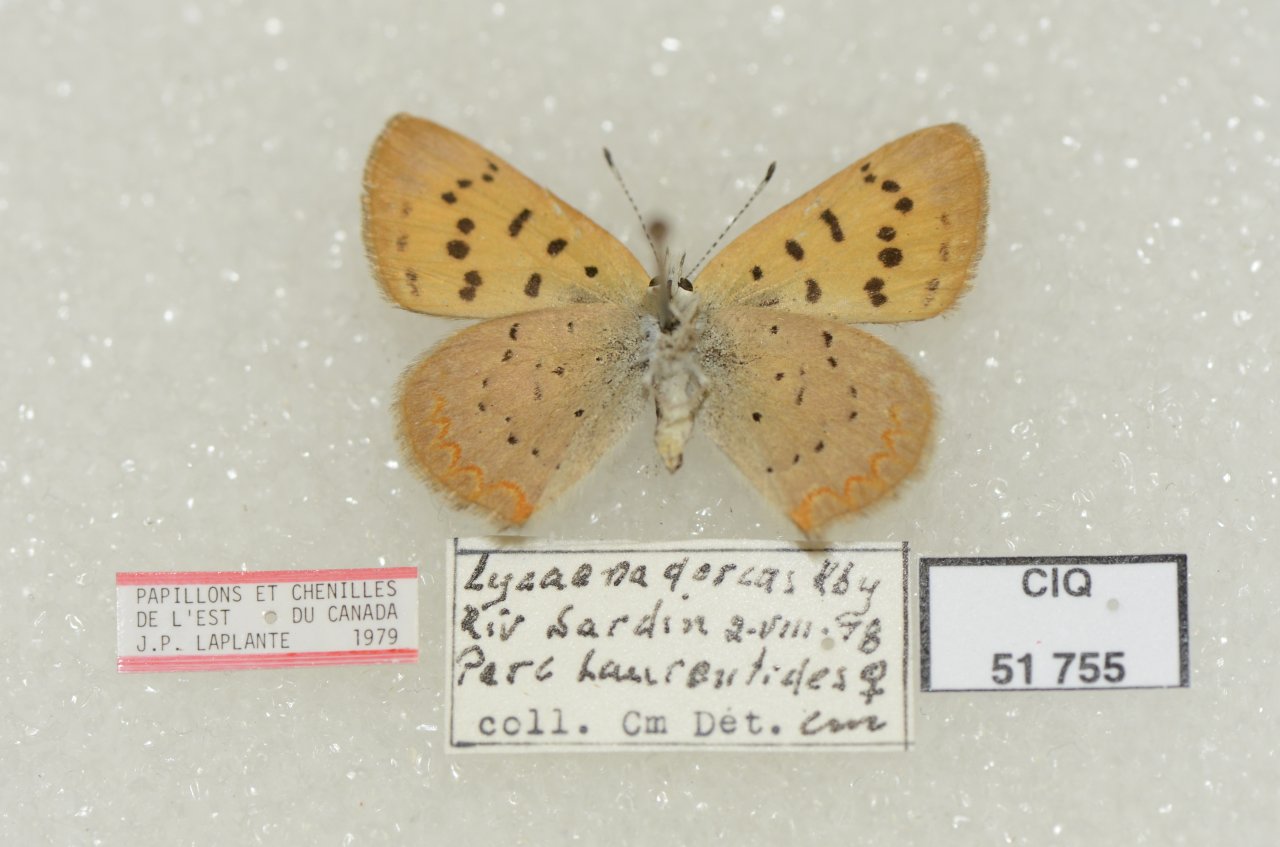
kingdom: Animalia
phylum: Arthropoda
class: Insecta
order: Lepidoptera
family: Lycaenidae
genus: Epidemia
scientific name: Epidemia dorcas
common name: Dorcas Copper
